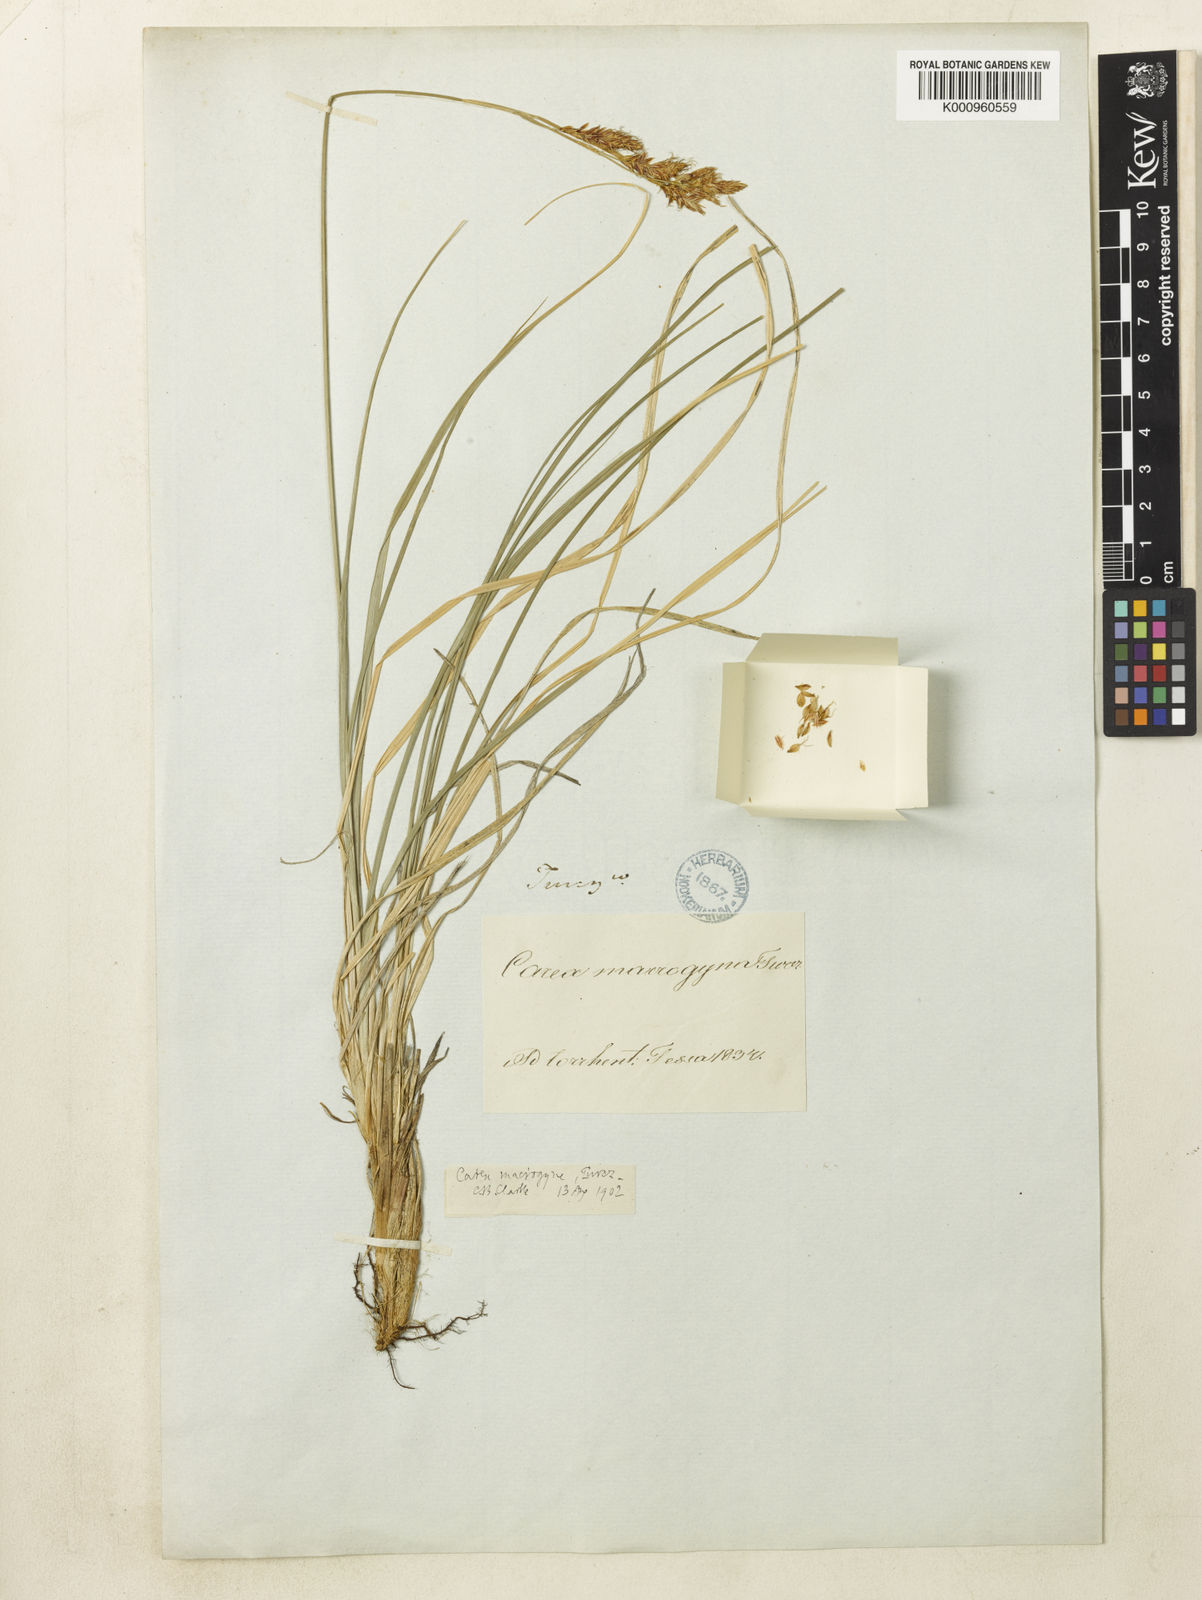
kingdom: Plantae
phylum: Tracheophyta
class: Liliopsida
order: Poales
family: Cyperaceae
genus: Carex
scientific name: Carex
